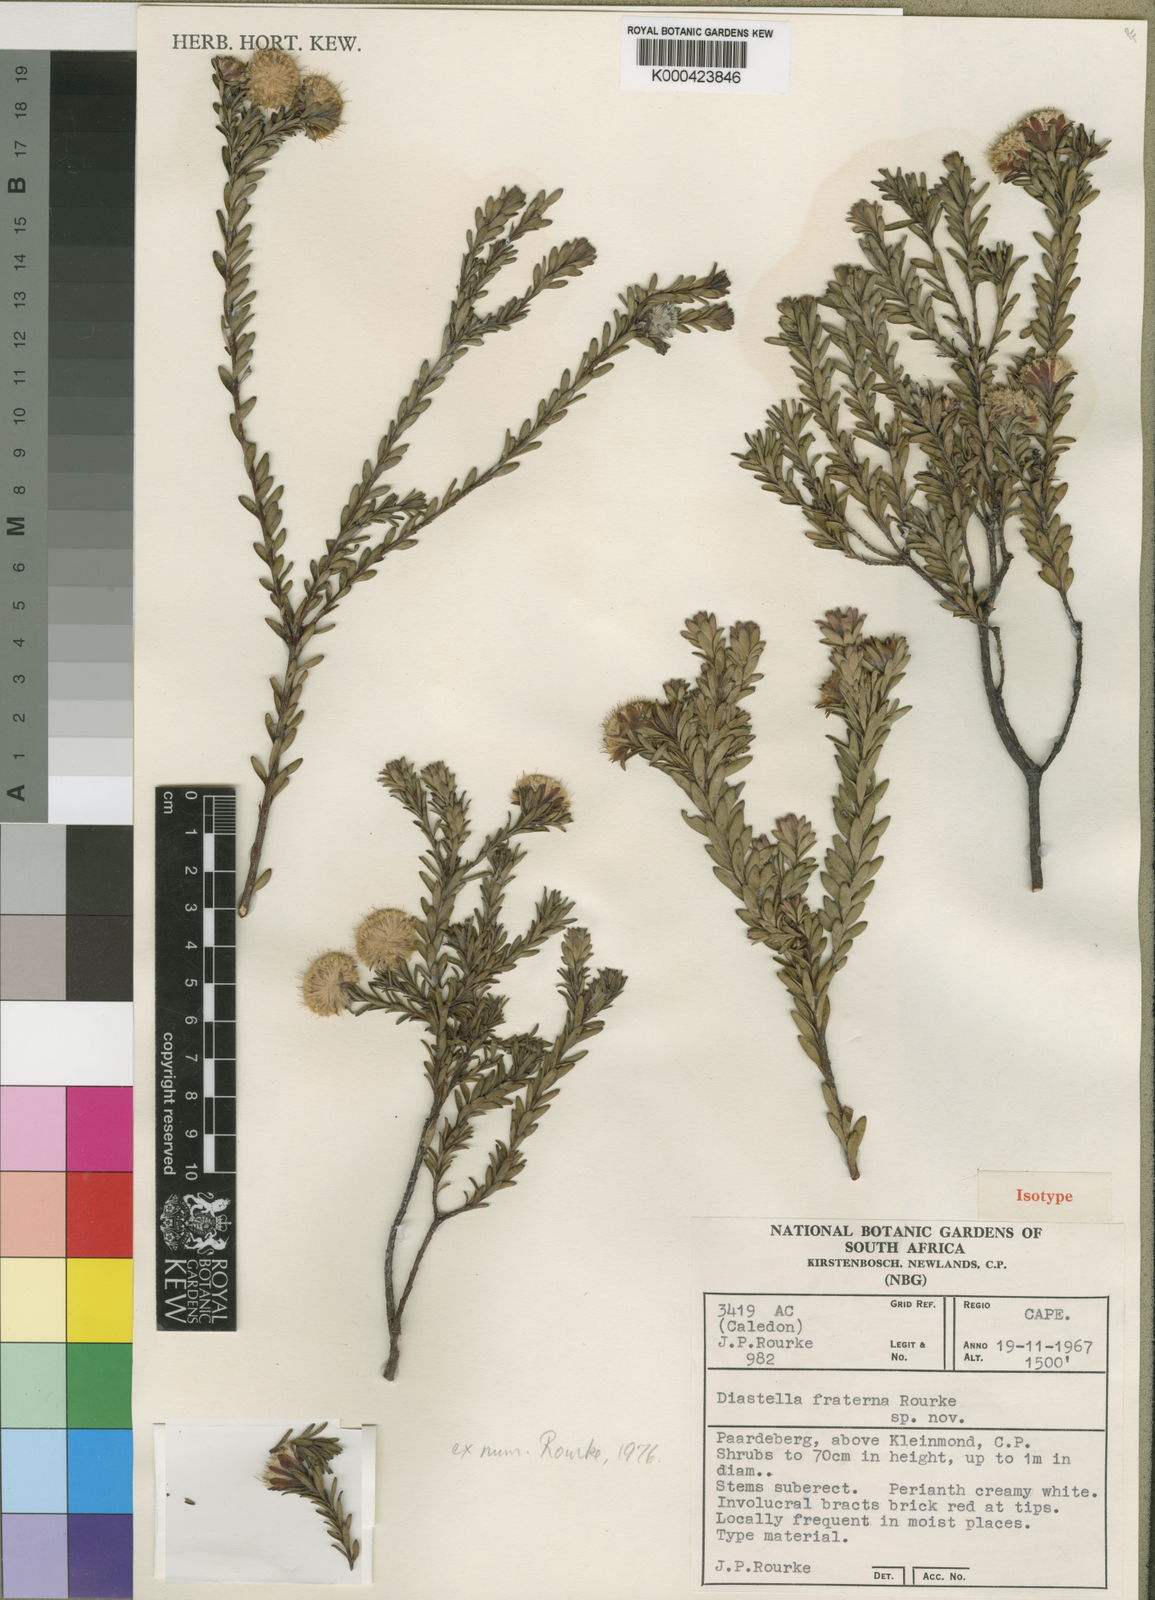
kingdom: Plantae
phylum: Tracheophyta
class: Magnoliopsida
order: Proteales
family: Proteaceae
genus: Diastella
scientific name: Diastella fraterna
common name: Palmiet silkypuff
